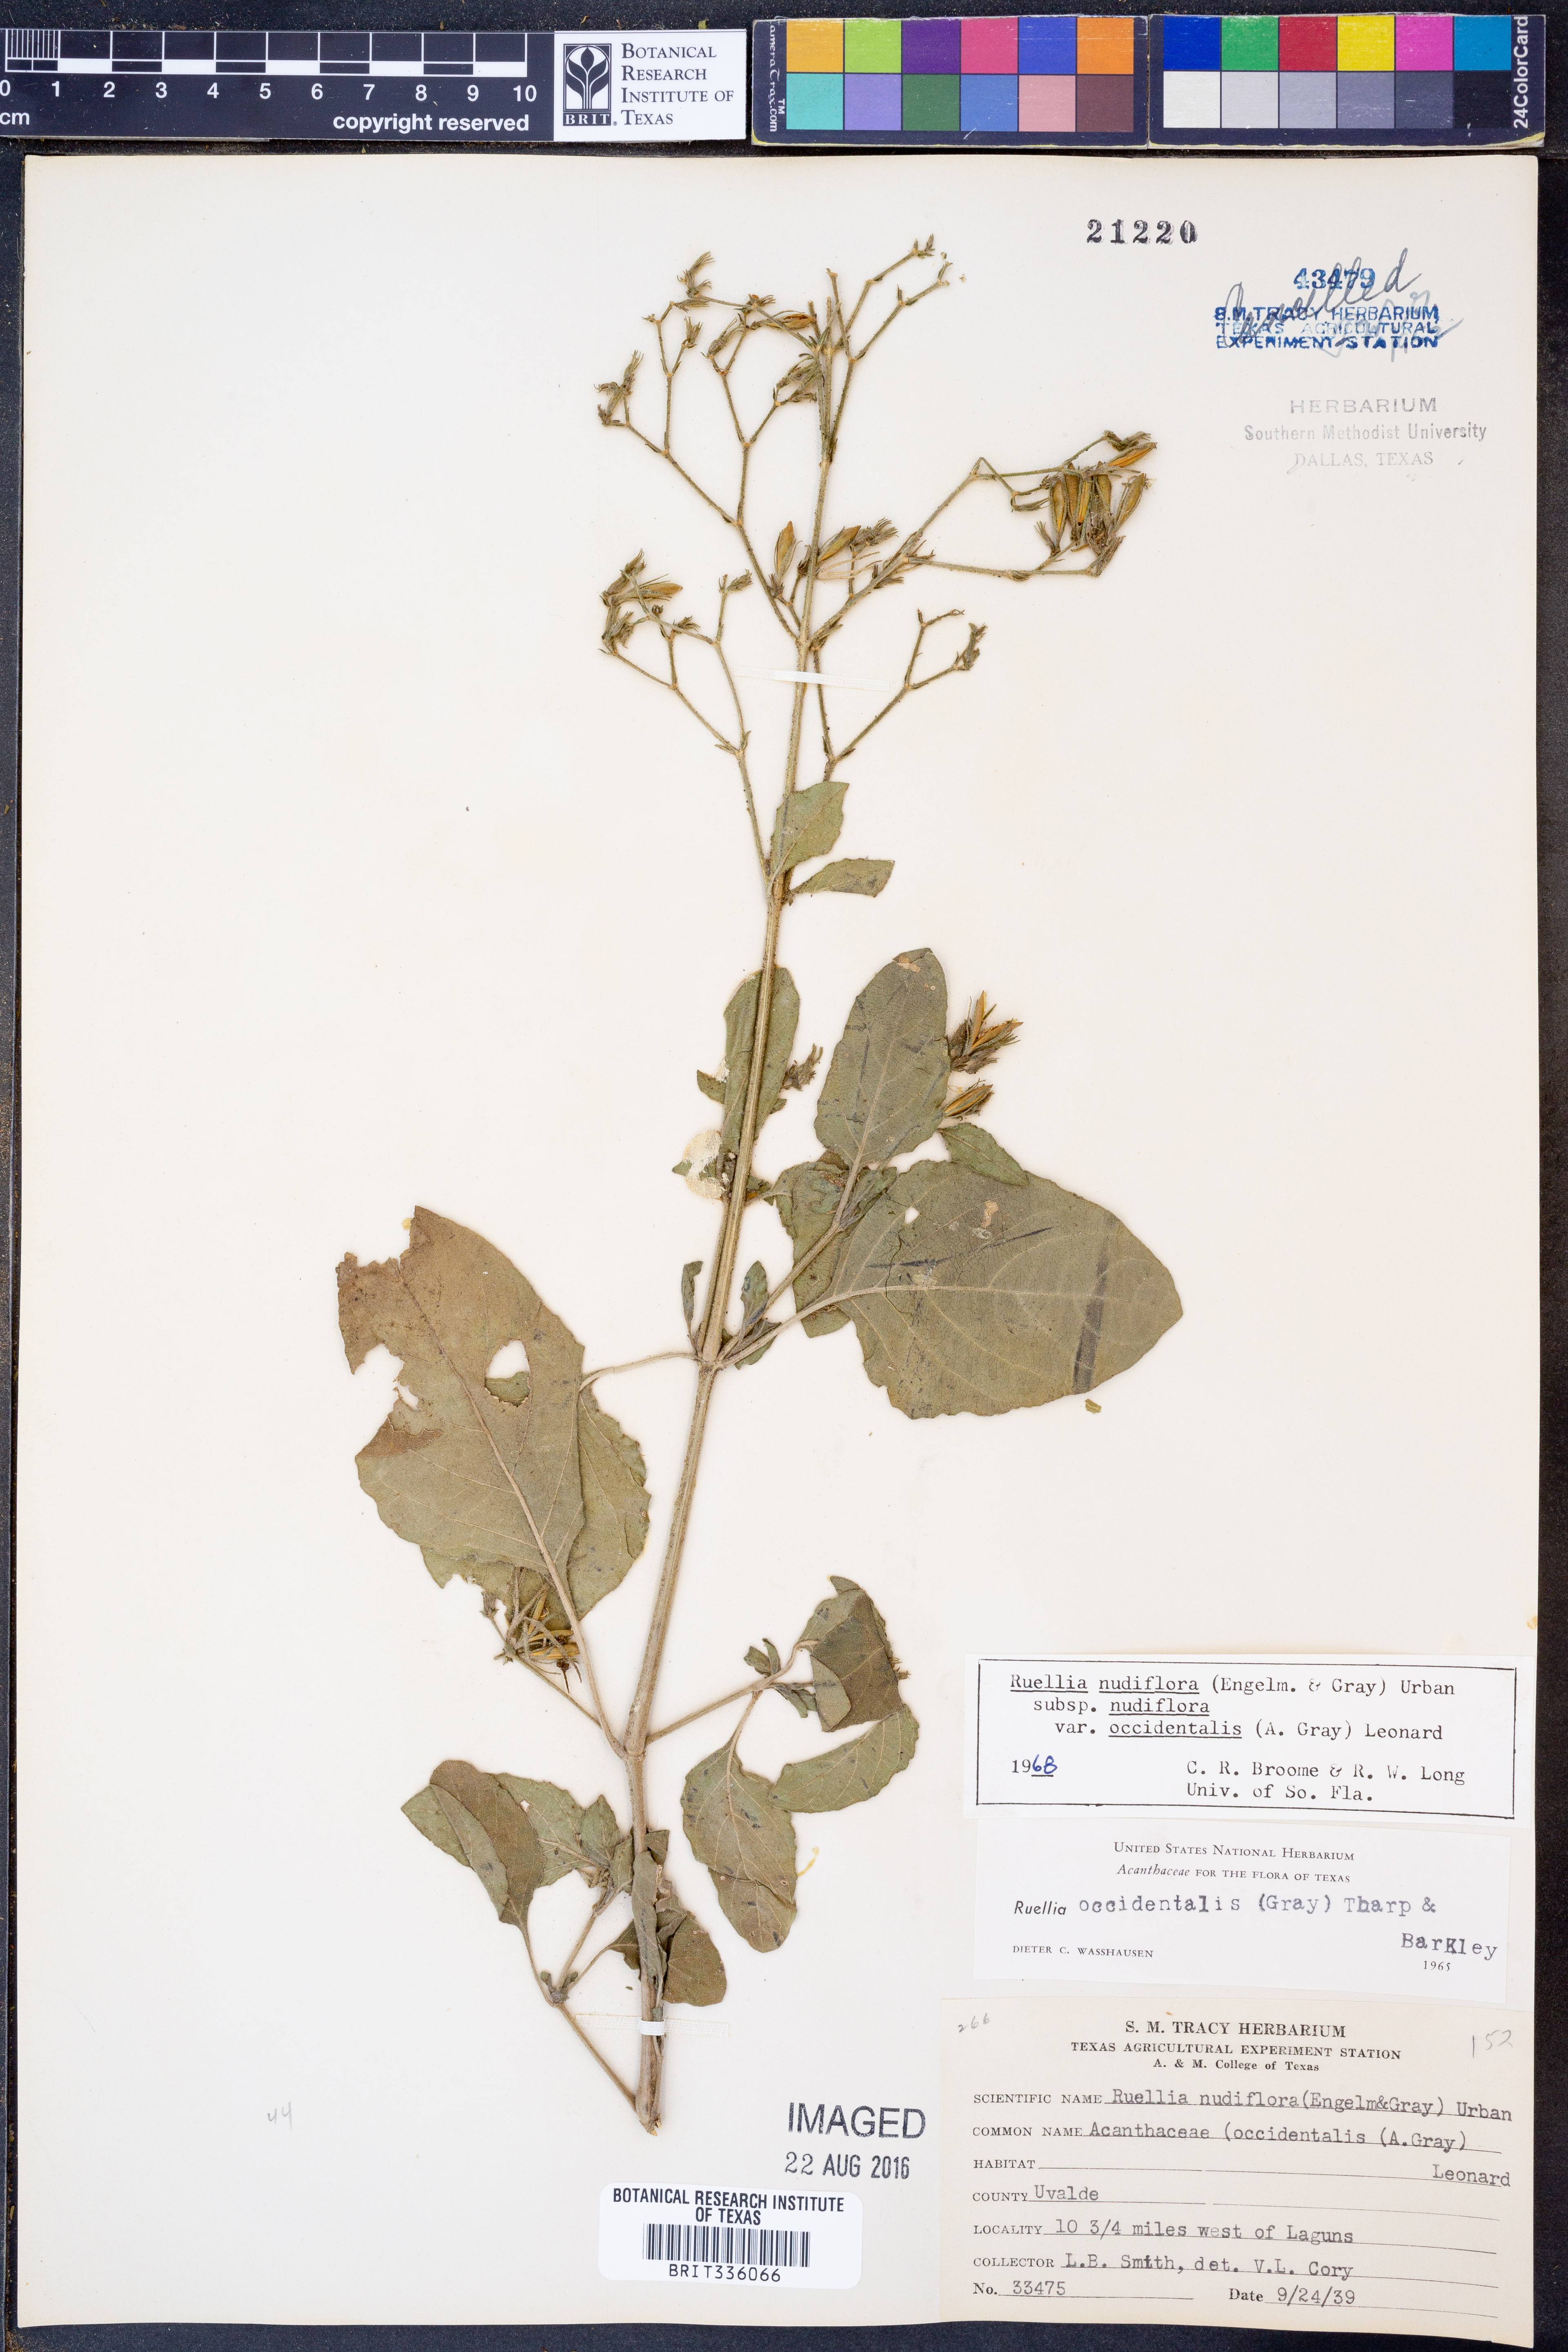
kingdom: Plantae
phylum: Tracheophyta
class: Magnoliopsida
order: Lamiales
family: Acanthaceae
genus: Ruellia
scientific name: Ruellia ciliatiflora
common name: Hairyflower wild petunia
